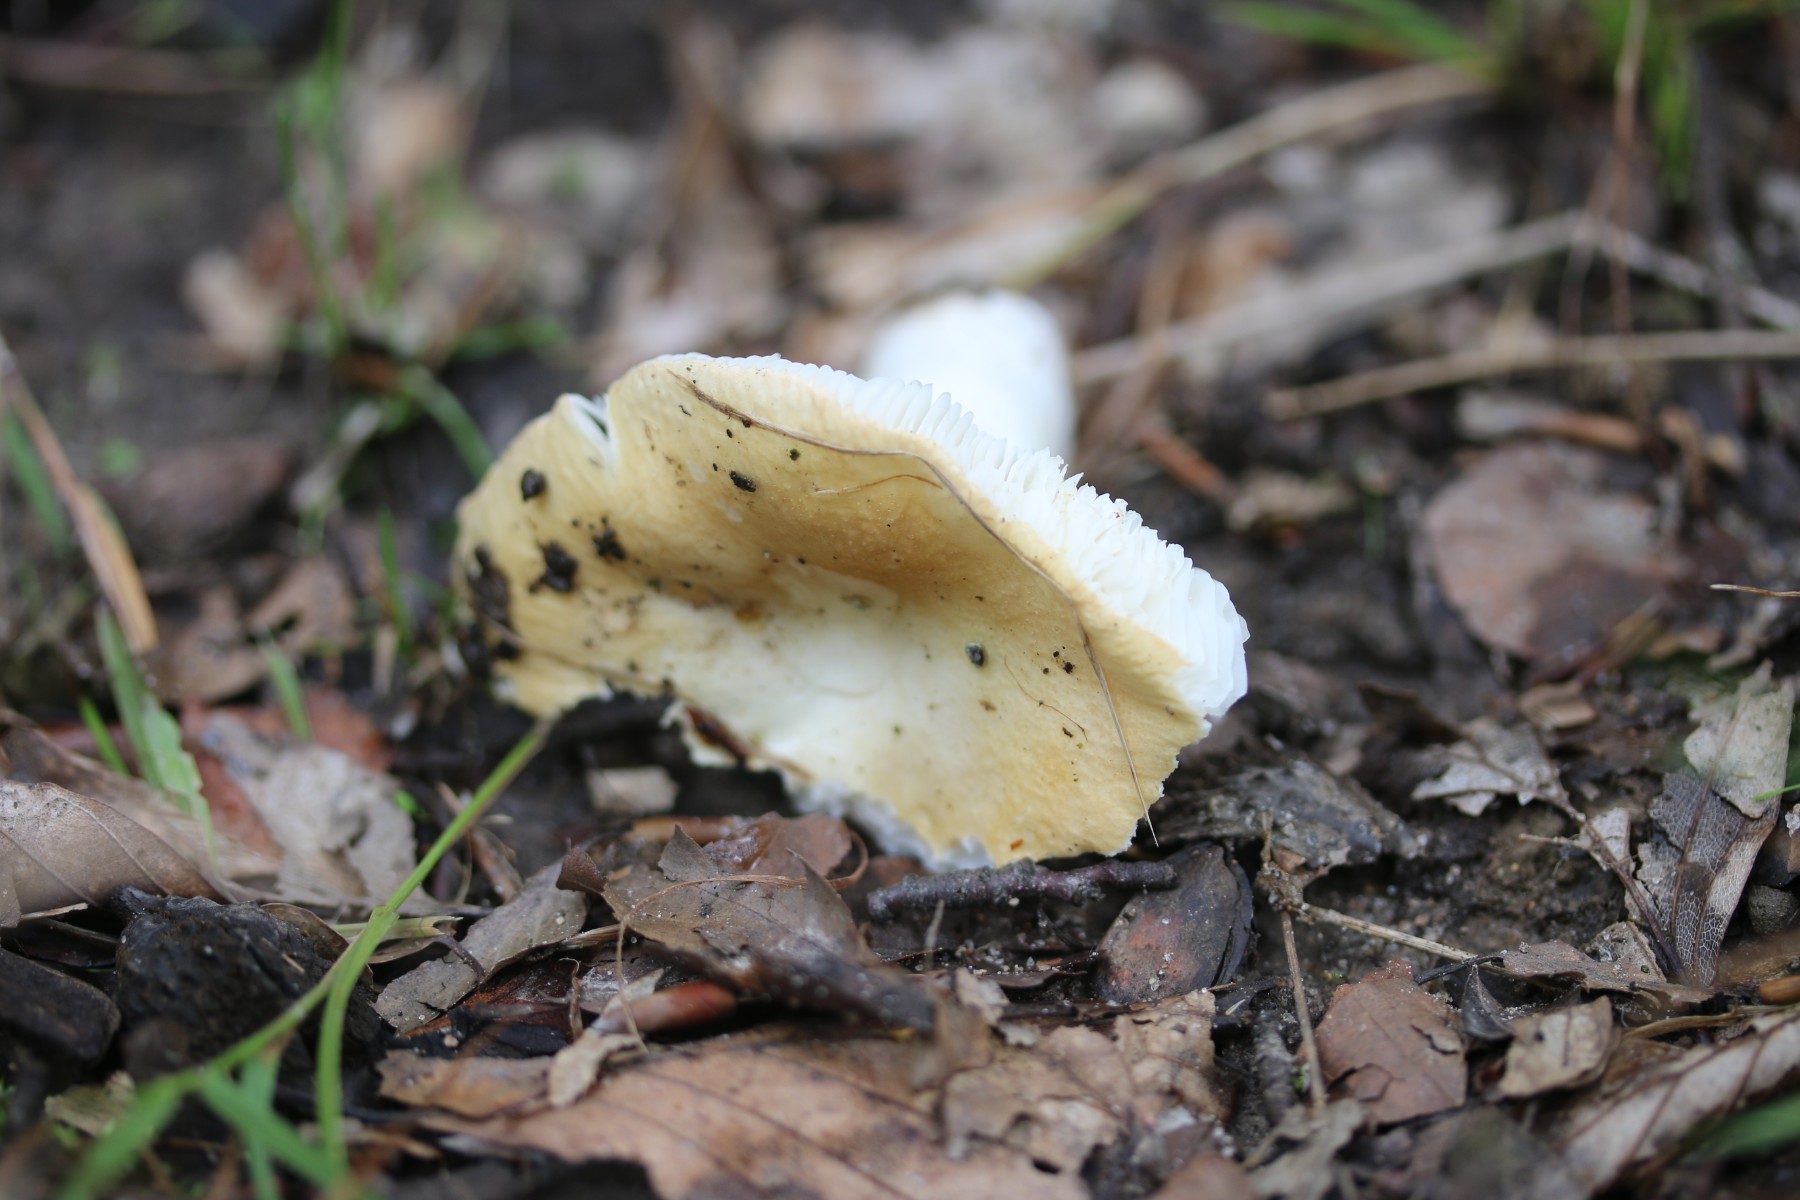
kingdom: Fungi
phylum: Basidiomycota
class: Agaricomycetes
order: Russulales
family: Russulaceae
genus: Russula
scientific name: Russula roseoaurantia
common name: kornet skørhat
